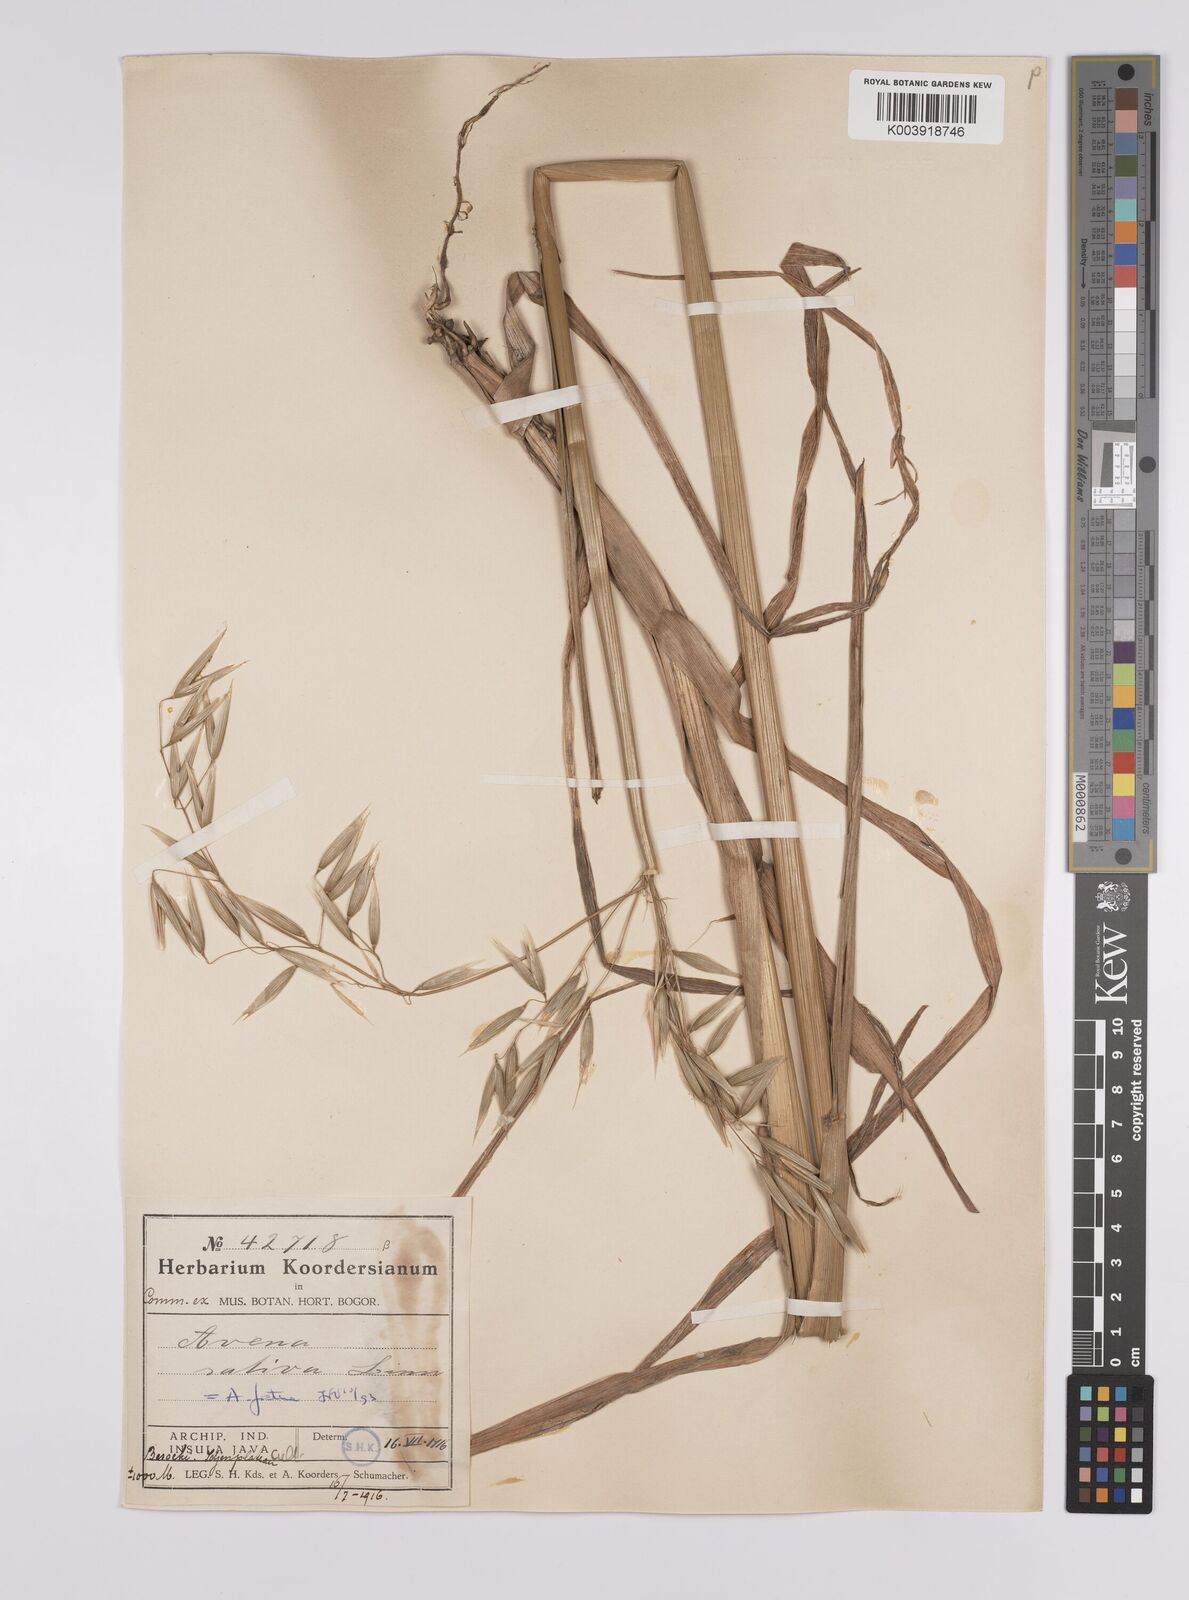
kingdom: Plantae
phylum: Tracheophyta
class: Liliopsida
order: Poales
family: Poaceae
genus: Avena
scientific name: Avena sativa
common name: Oat
